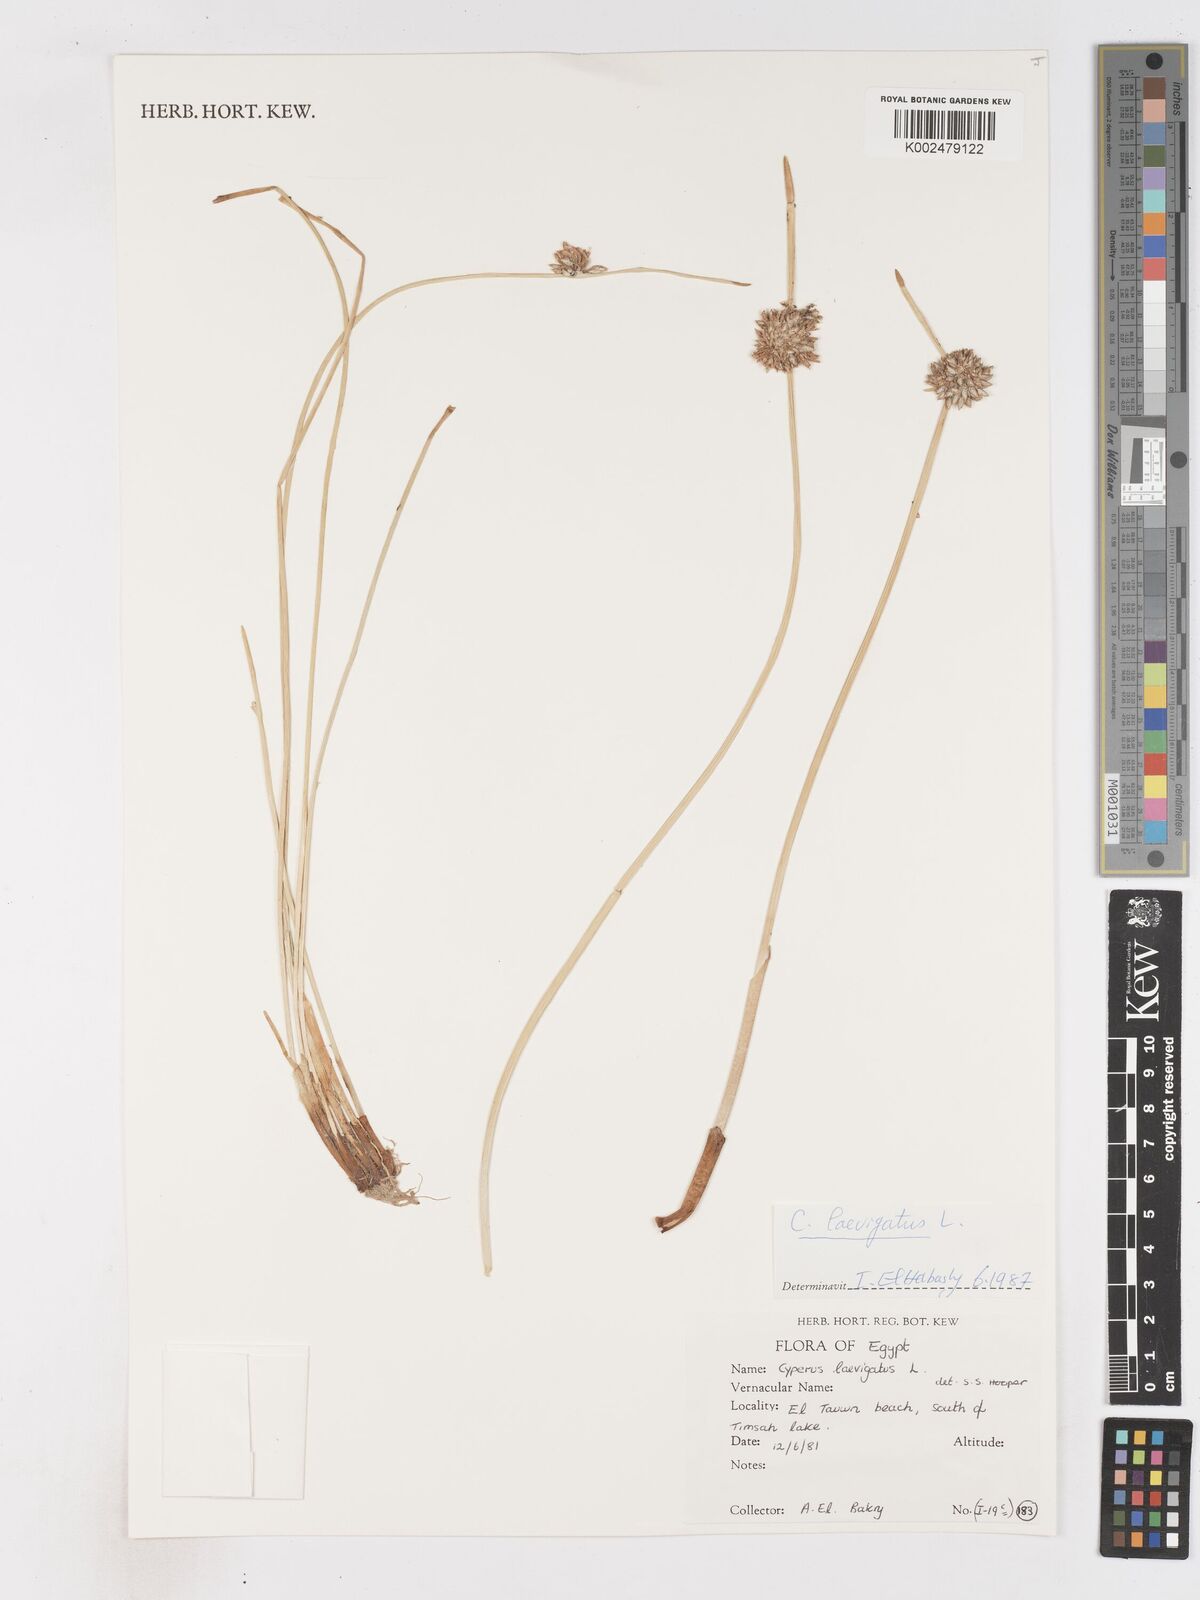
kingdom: Plantae
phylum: Tracheophyta
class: Liliopsida
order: Poales
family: Cyperaceae
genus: Cyperus
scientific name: Cyperus laevigatus
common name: Smooth flat sedge
